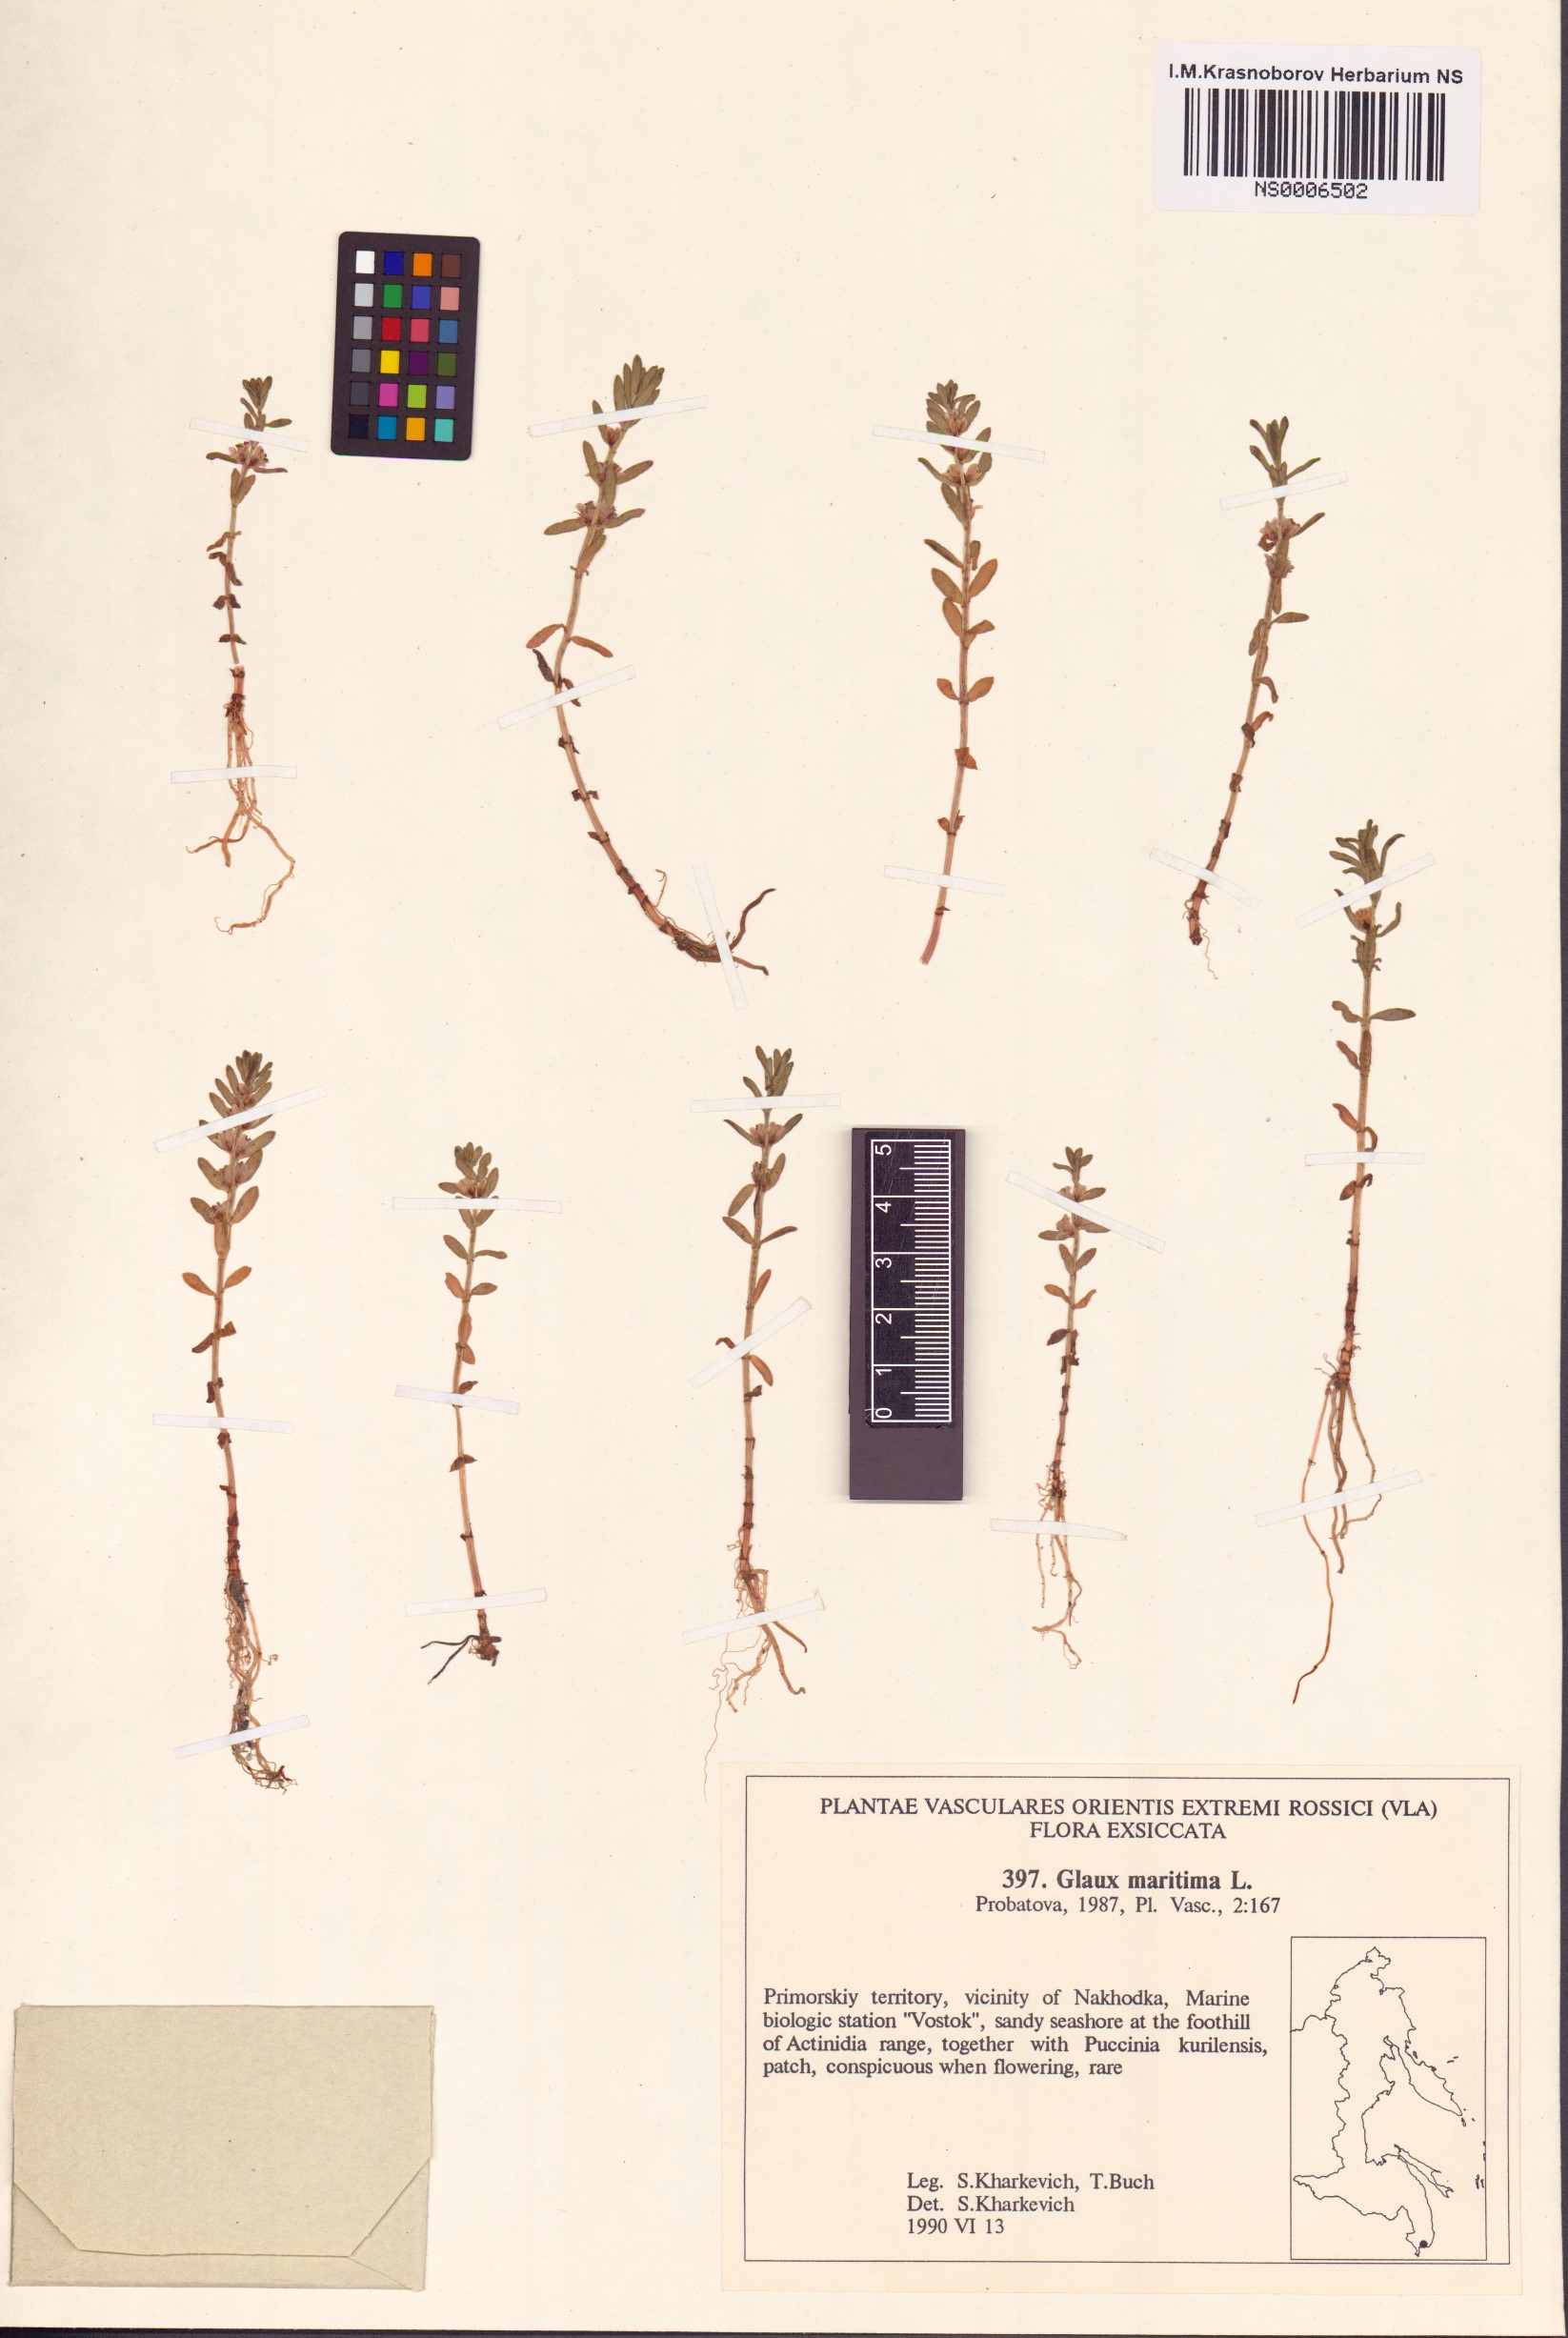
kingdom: Plantae
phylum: Tracheophyta
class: Magnoliopsida
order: Ericales
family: Primulaceae
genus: Lysimachia
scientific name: Lysimachia maritima
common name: Sea milkwort
